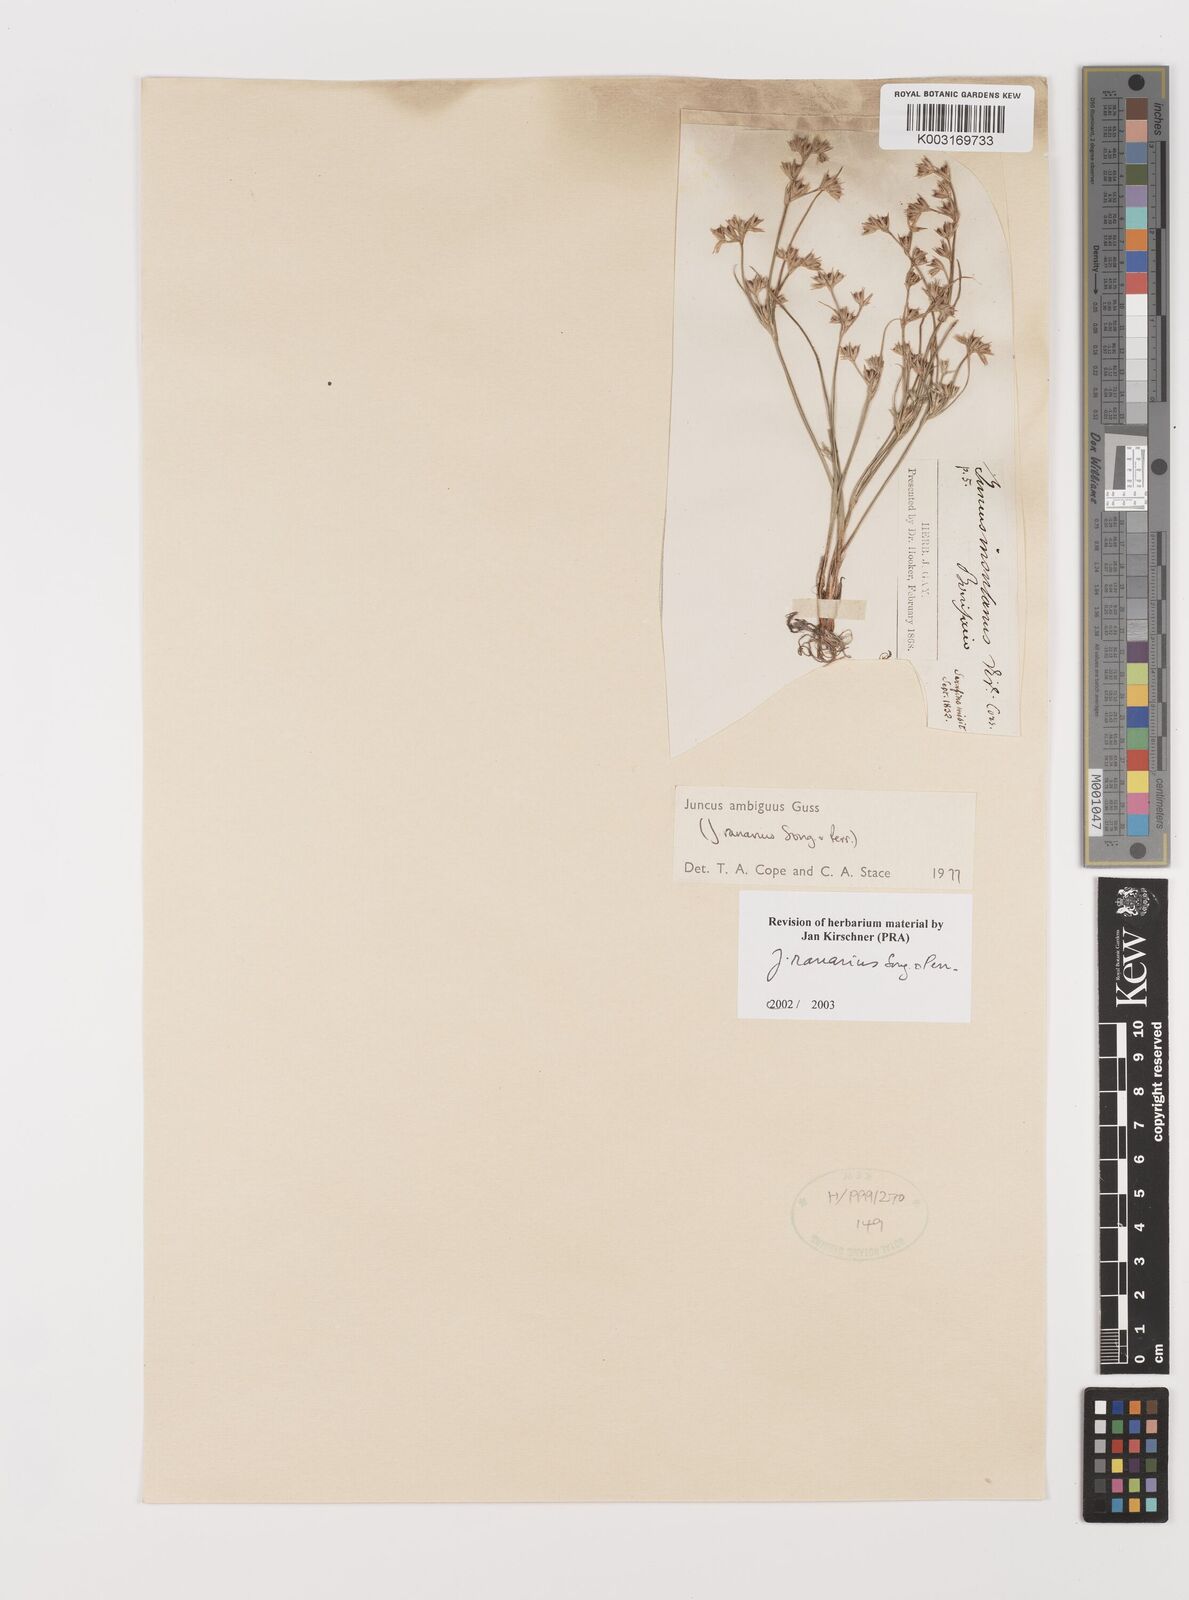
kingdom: Plantae
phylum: Tracheophyta
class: Liliopsida
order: Poales
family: Juncaceae
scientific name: Juncaceae
